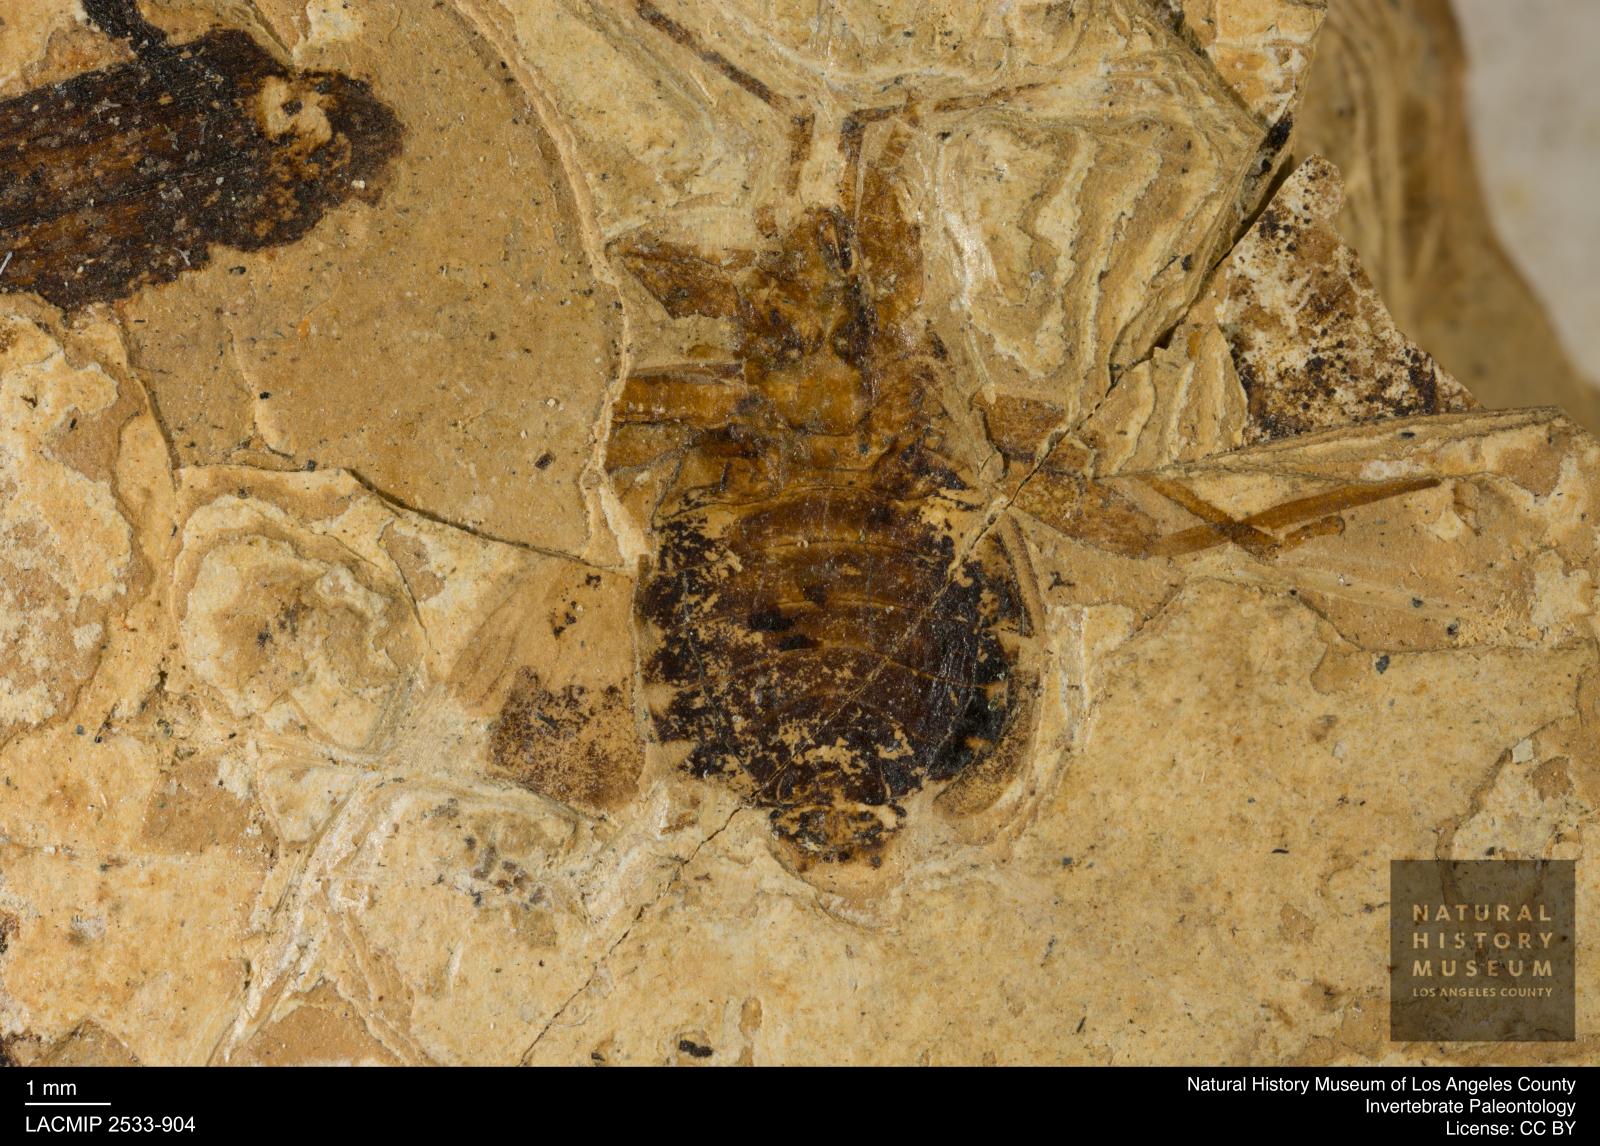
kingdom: Animalia
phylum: Arthropoda
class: Insecta
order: Hemiptera
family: Coreidae
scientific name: Coreidae
